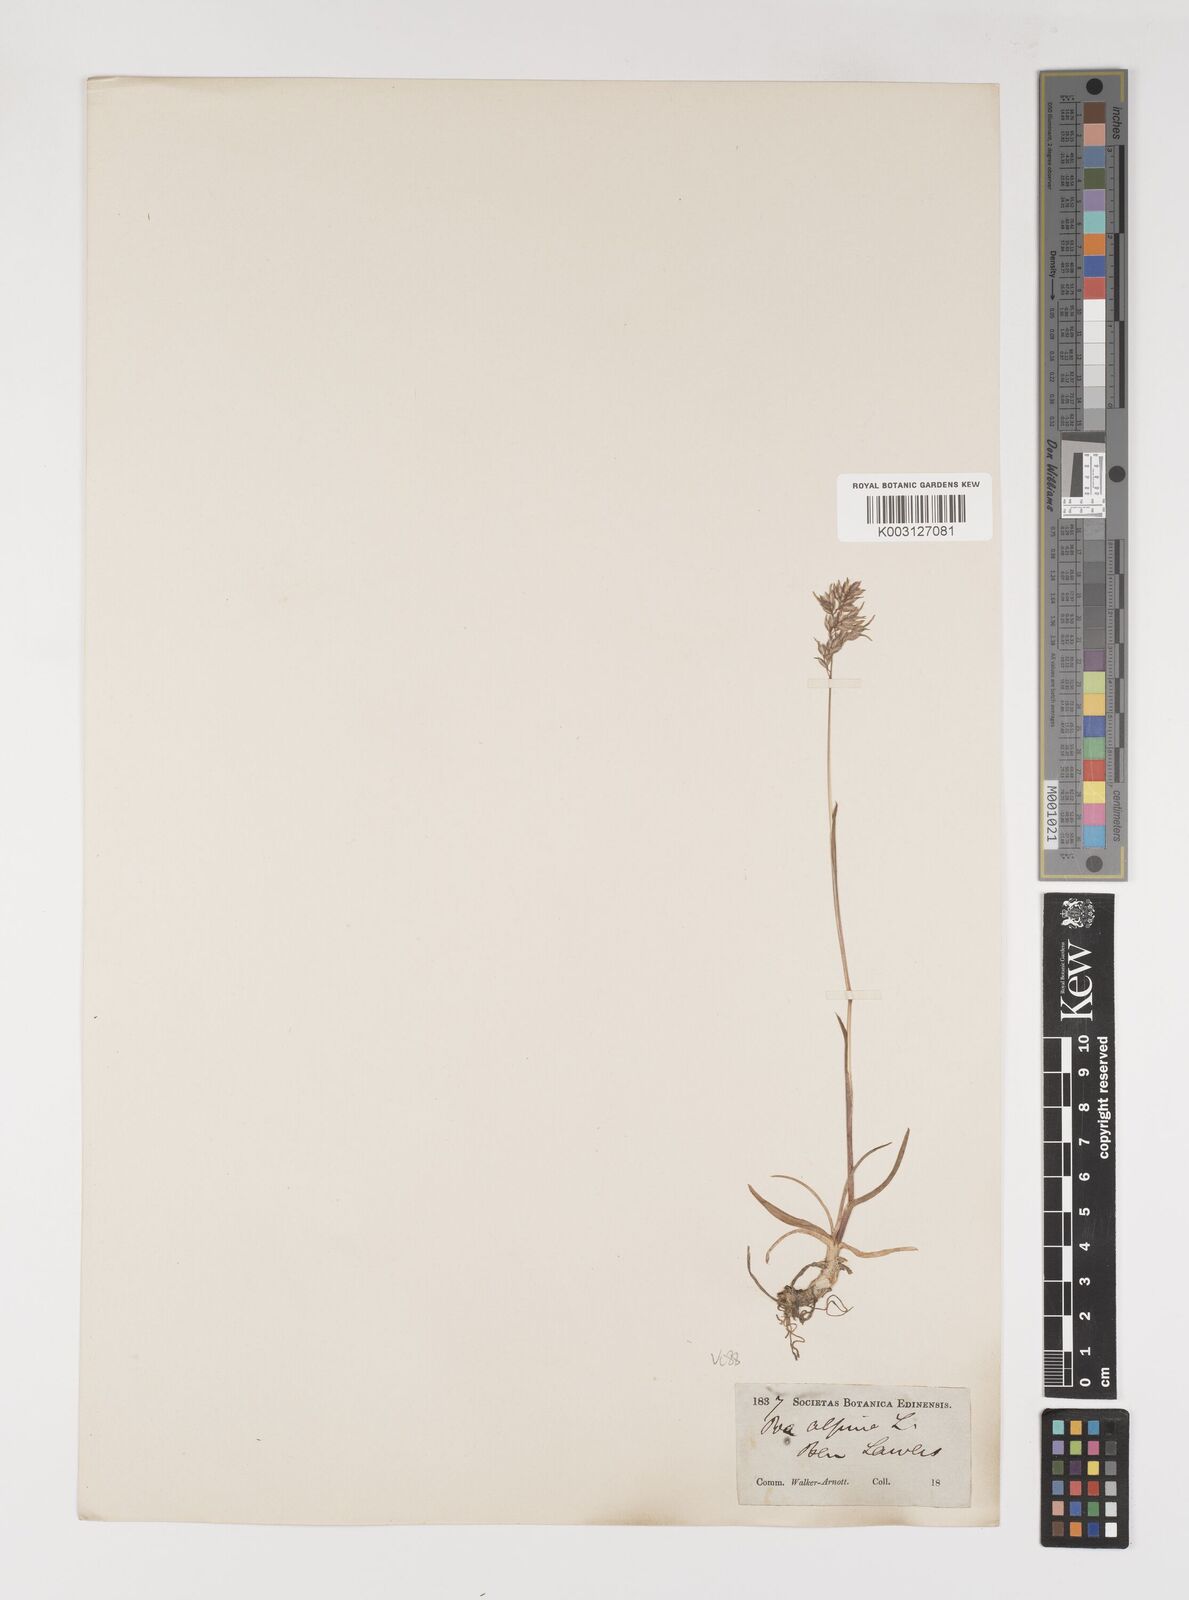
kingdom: Plantae
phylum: Tracheophyta
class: Liliopsida
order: Poales
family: Poaceae
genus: Poa
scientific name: Poa alpina
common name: Alpine bluegrass
